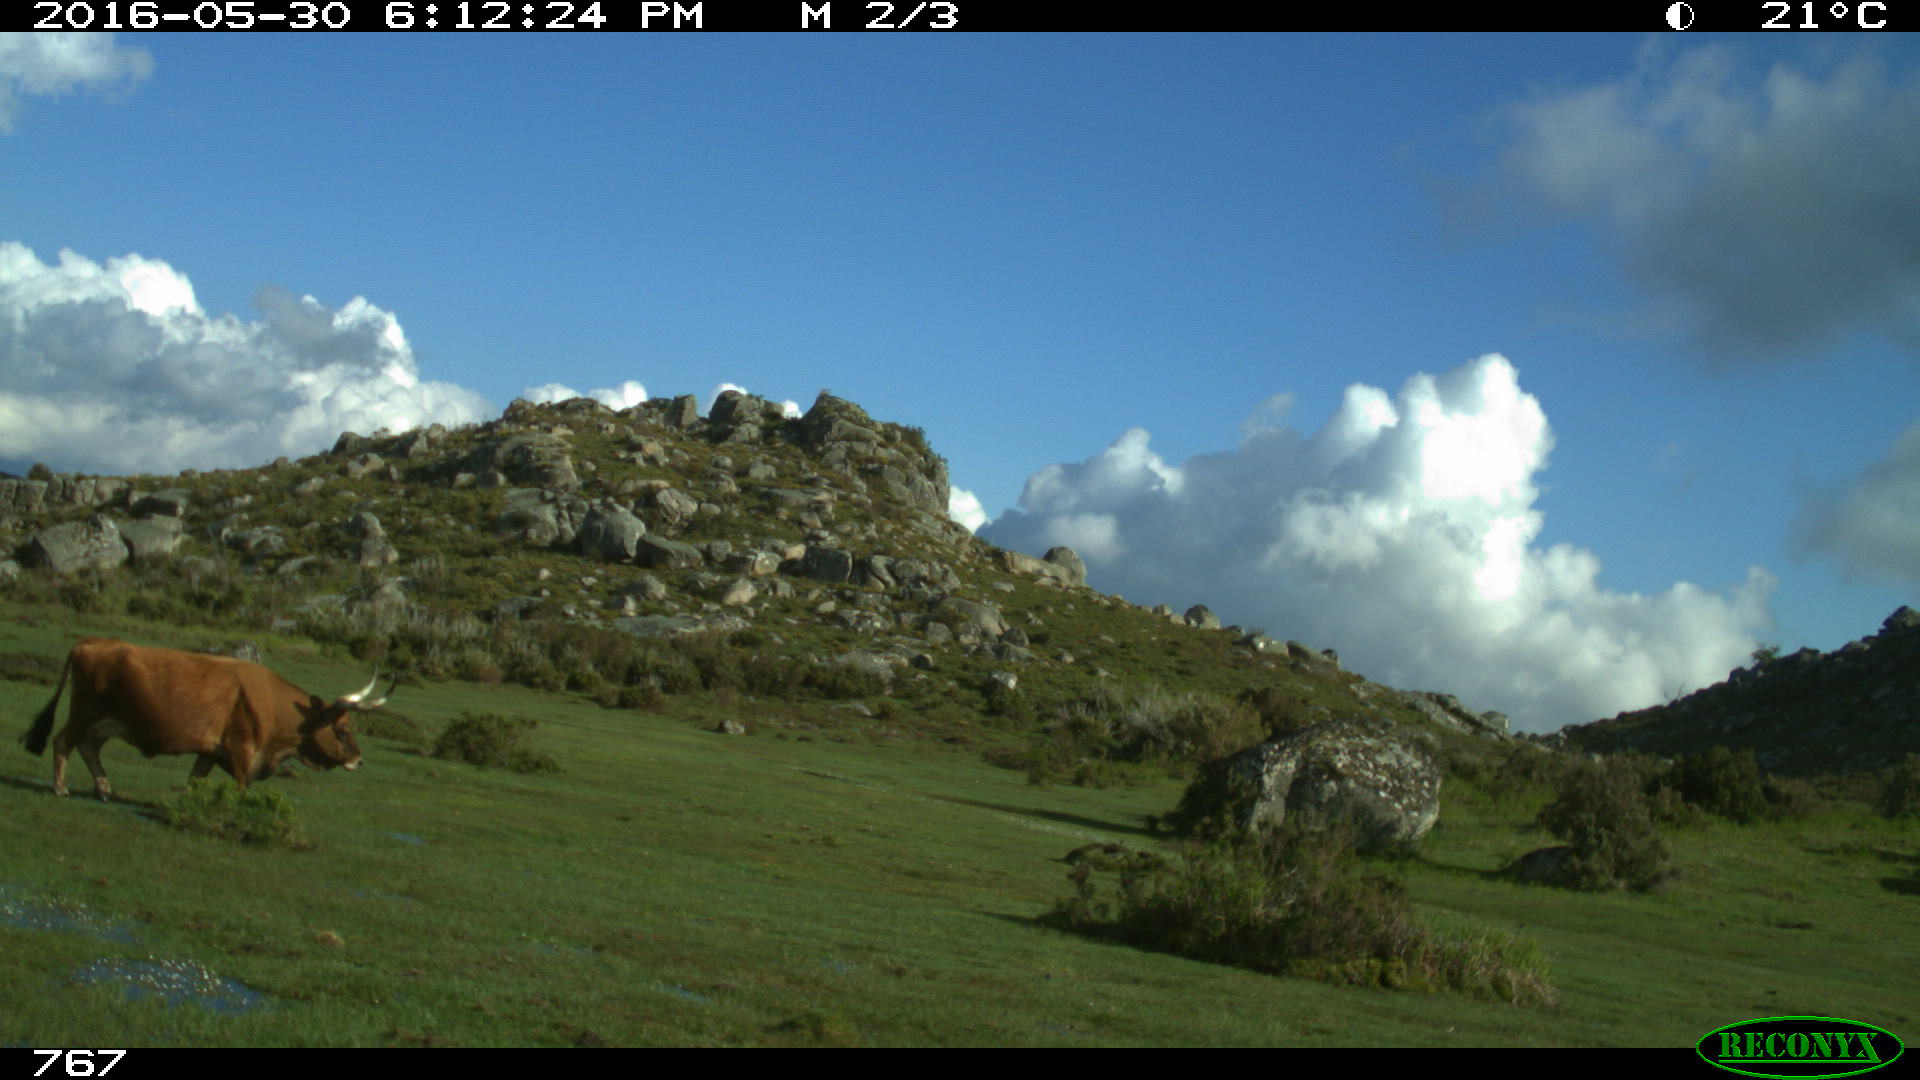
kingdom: Animalia
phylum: Chordata
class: Mammalia
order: Artiodactyla
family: Bovidae
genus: Bos
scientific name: Bos taurus
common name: Domesticated cattle
